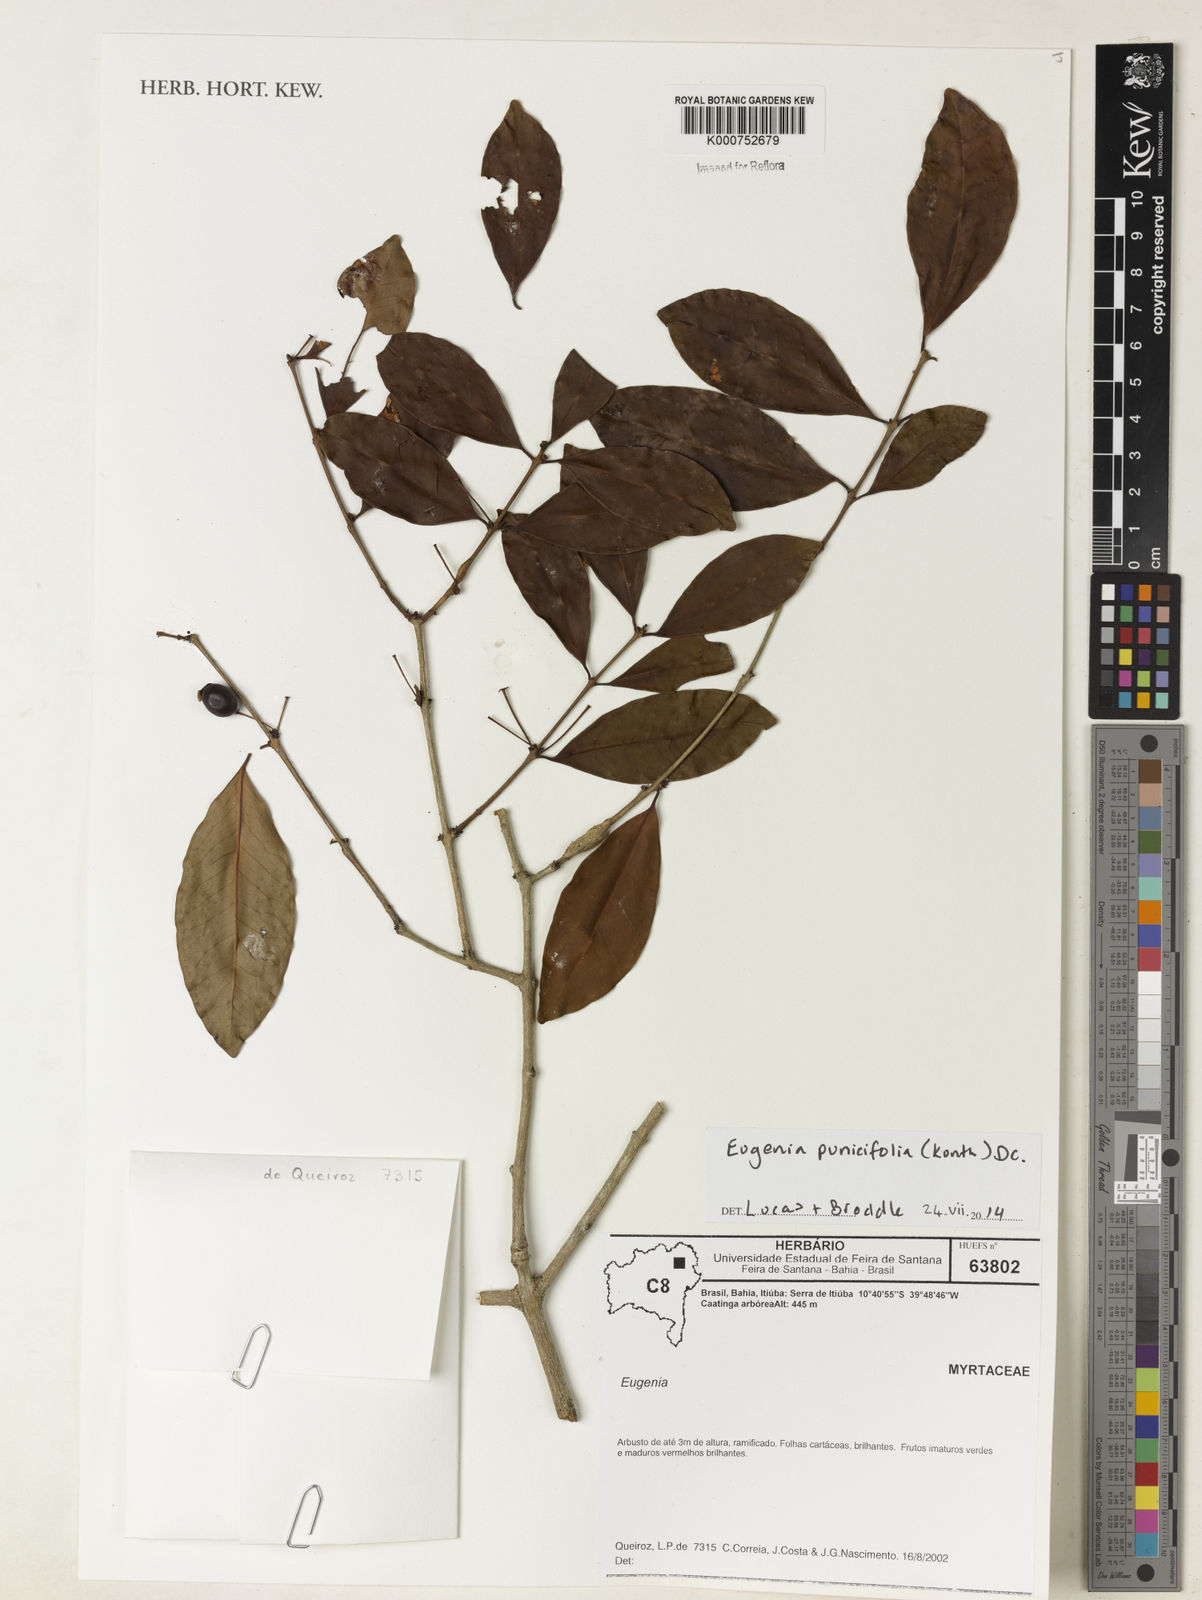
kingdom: Plantae
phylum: Tracheophyta
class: Magnoliopsida
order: Myrtales
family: Myrtaceae
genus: Eugenia
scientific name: Eugenia punicifolia
